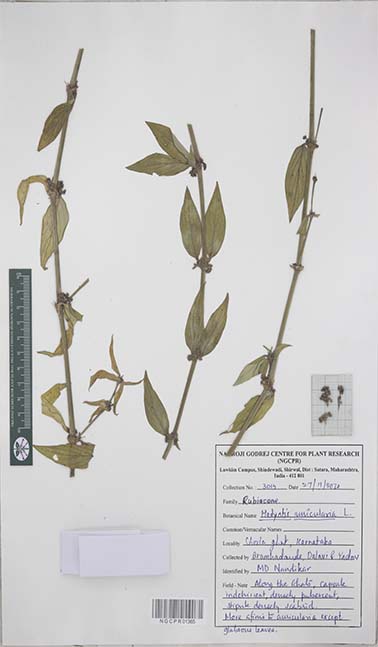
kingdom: Plantae
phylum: Tracheophyta
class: Magnoliopsida
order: Gentianales
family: Rubiaceae
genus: Exallage
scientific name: Exallage auricularia
